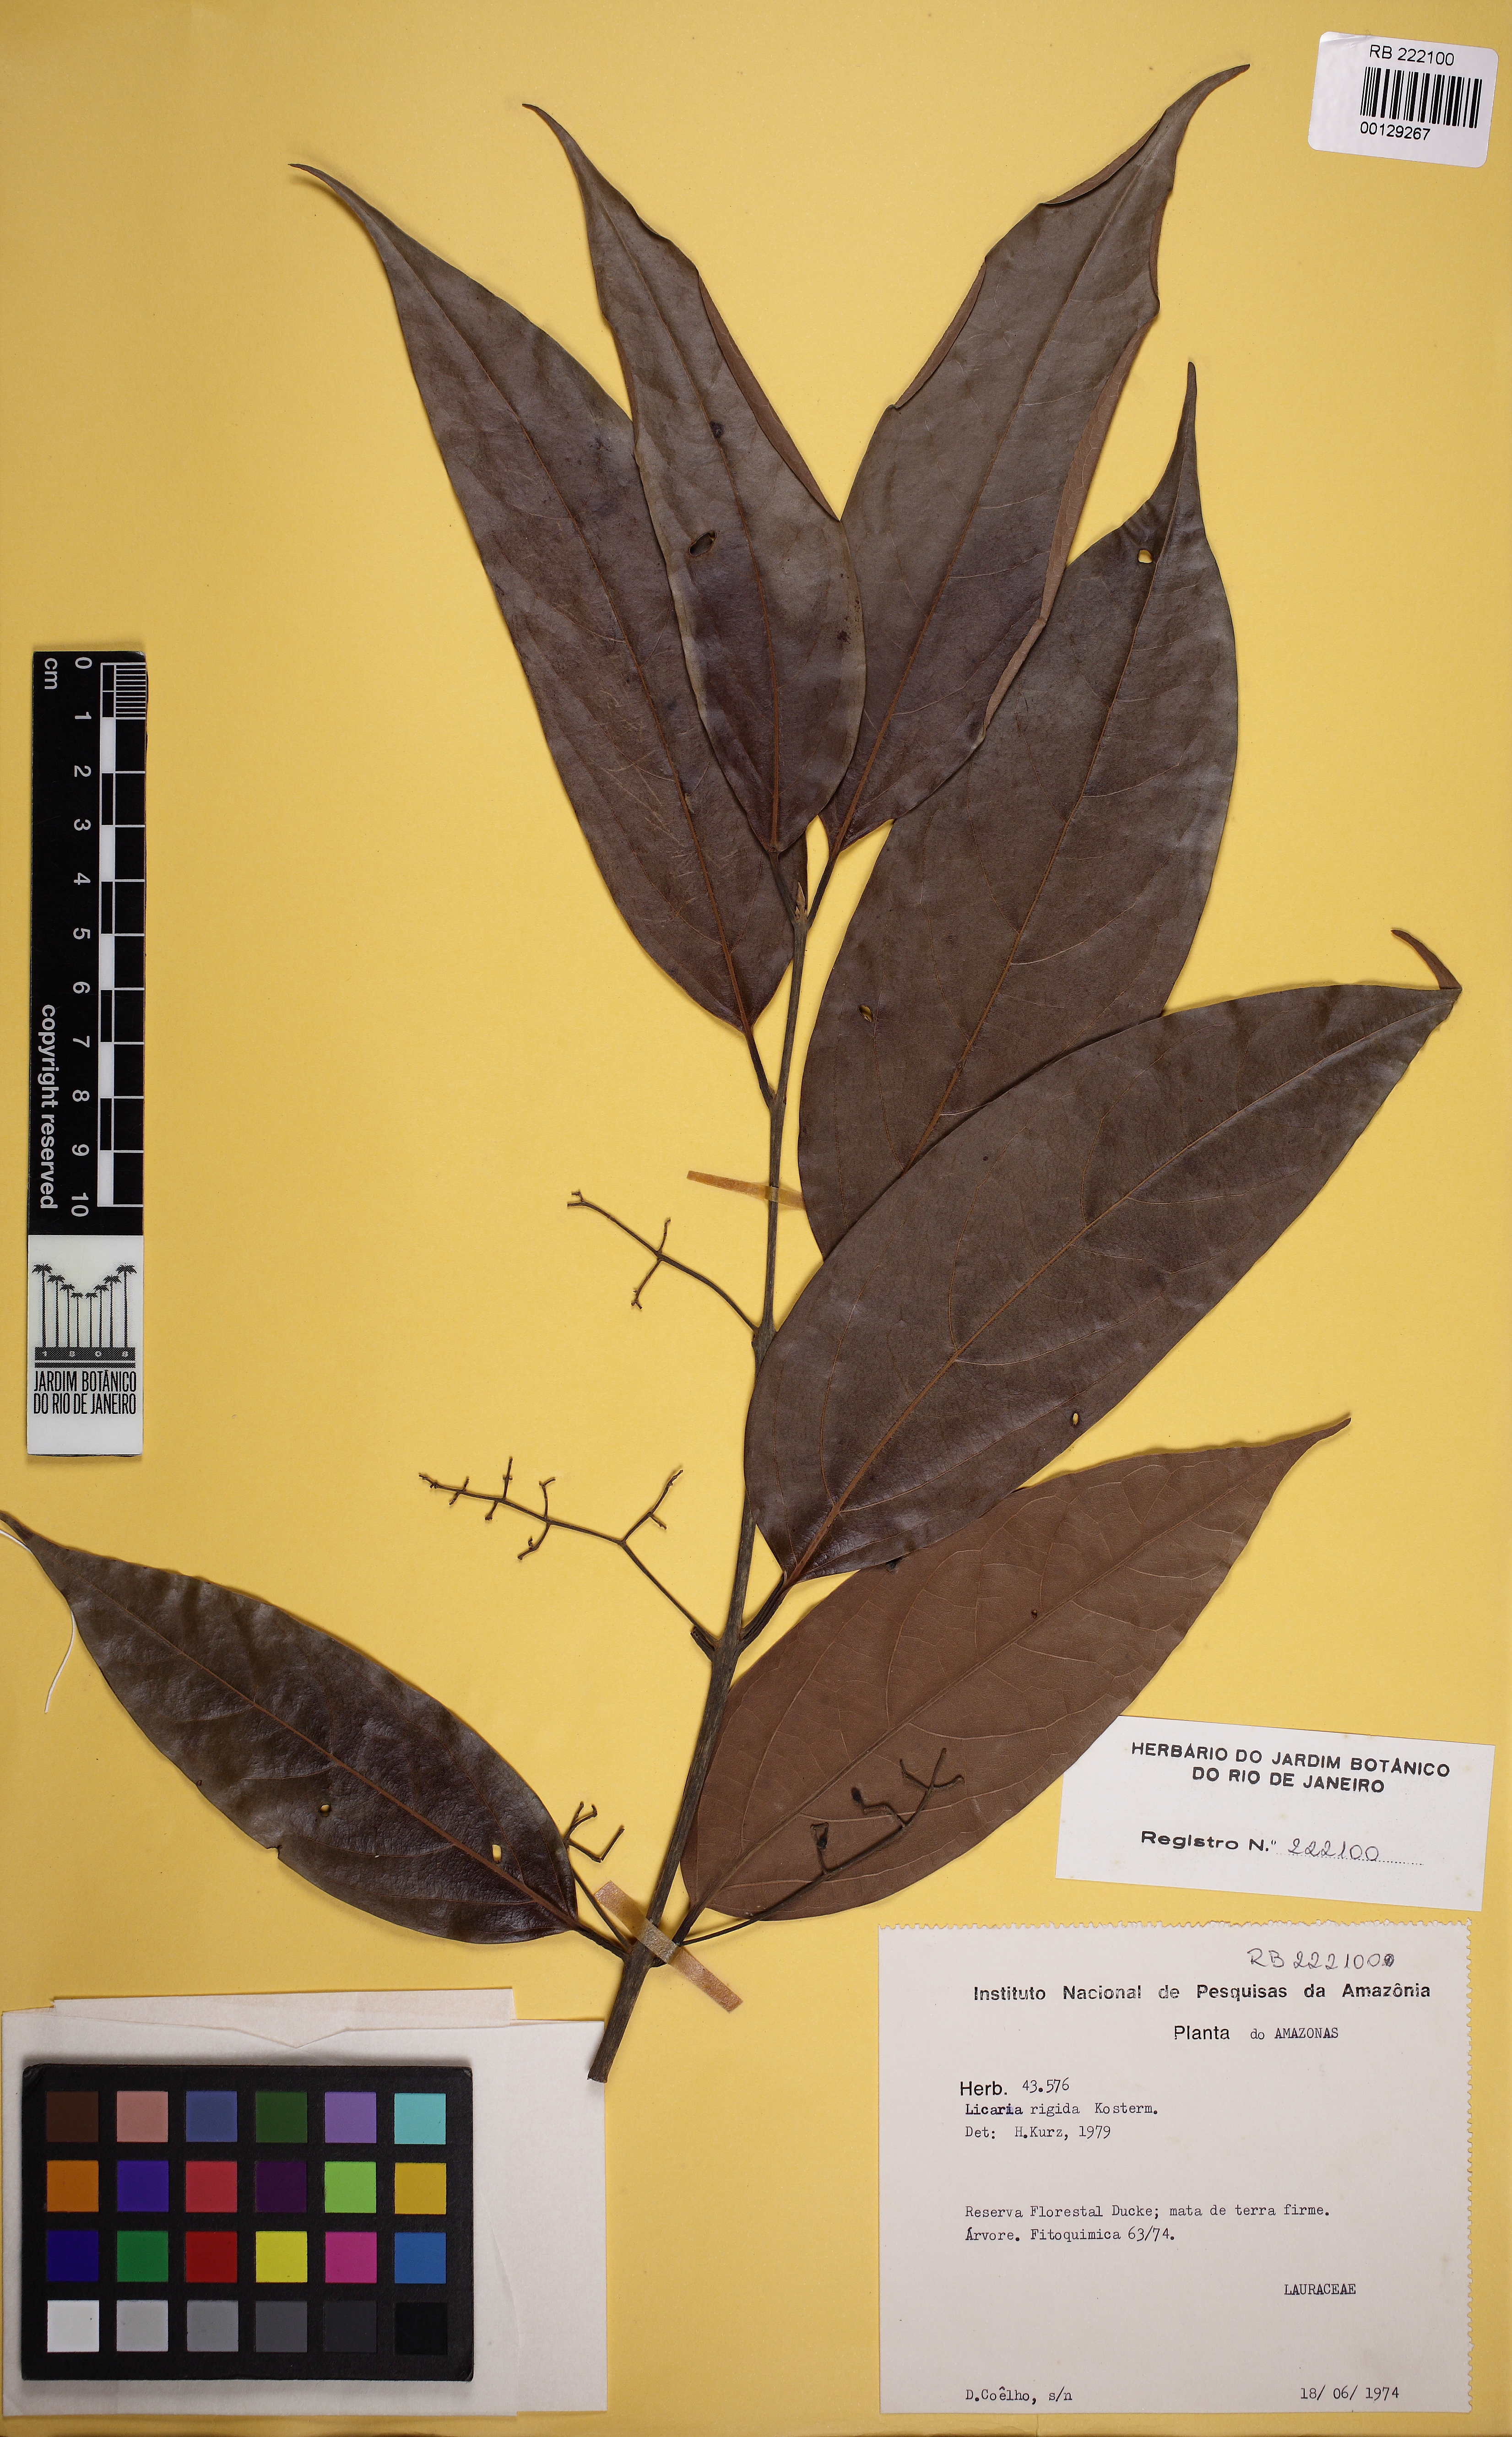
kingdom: Plantae
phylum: Tracheophyta
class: Magnoliopsida
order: Laurales
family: Lauraceae
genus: Licaria
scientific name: Licaria chrysophylla
